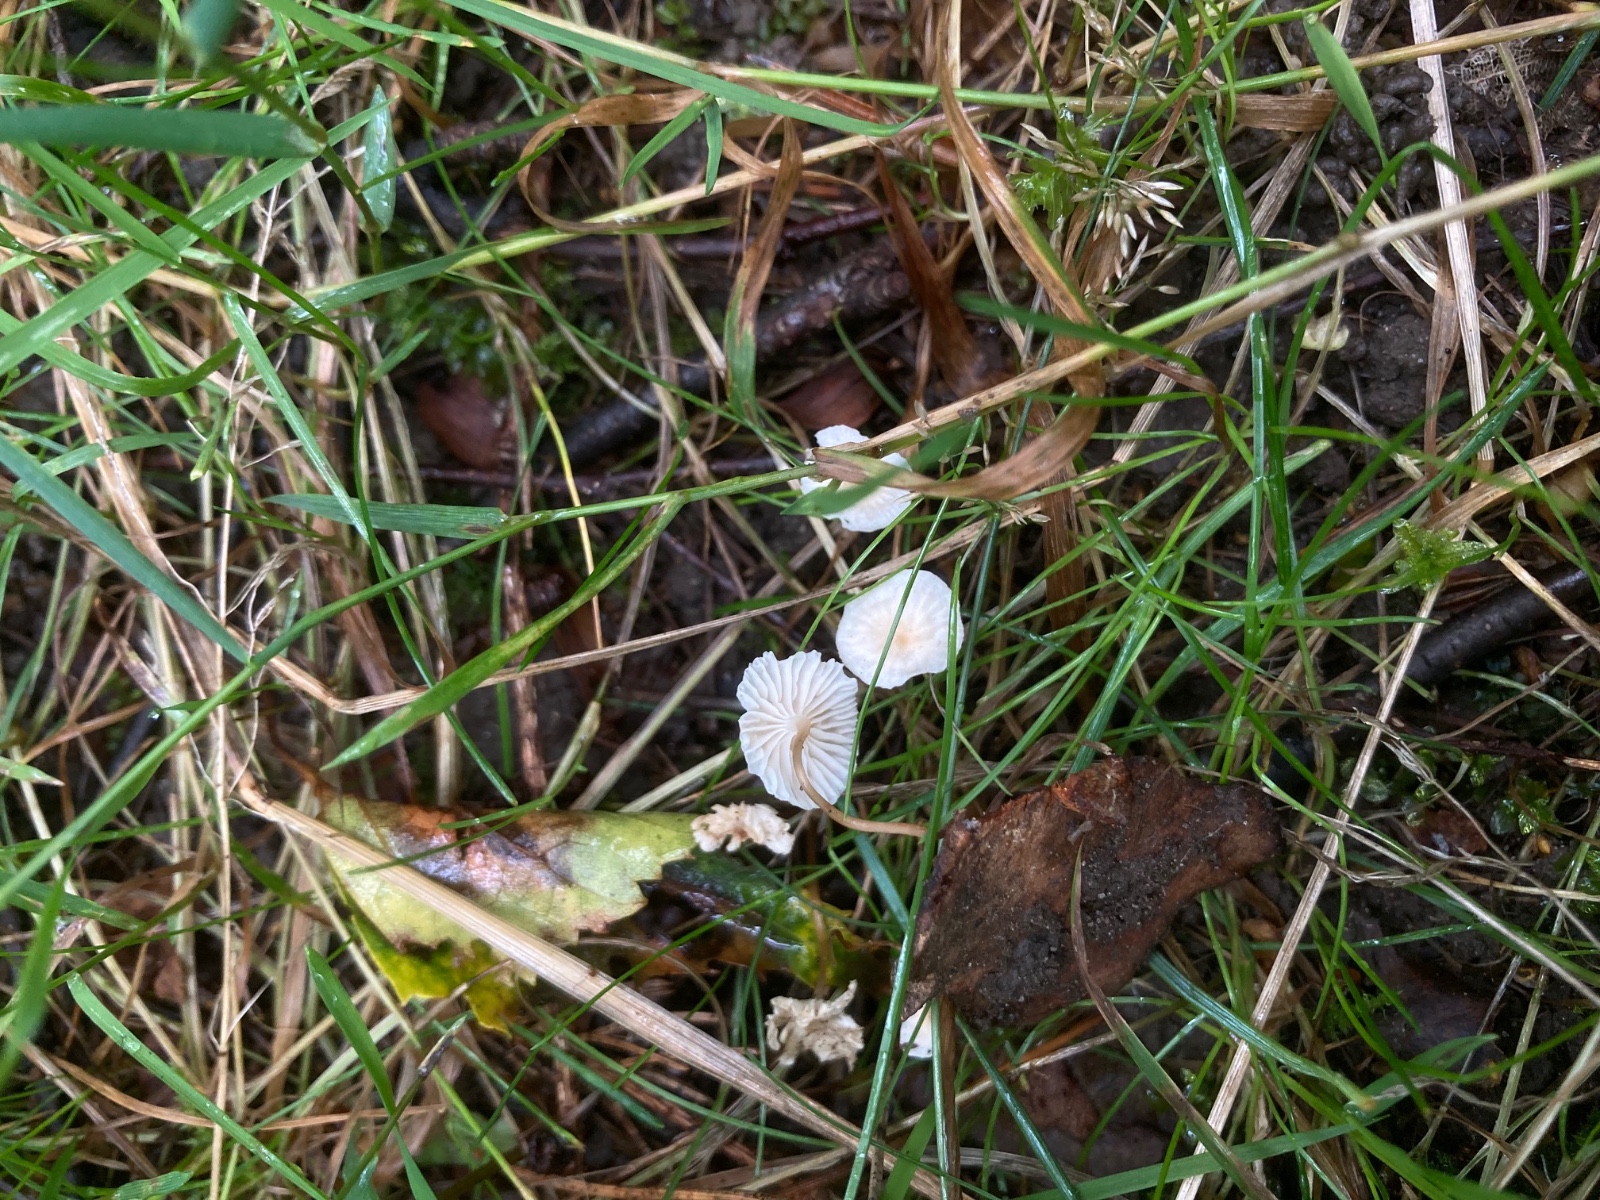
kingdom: Fungi
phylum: Basidiomycota
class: Agaricomycetes
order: Agaricales
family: Omphalotaceae
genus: Collybiopsis
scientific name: Collybiopsis vaillantii
